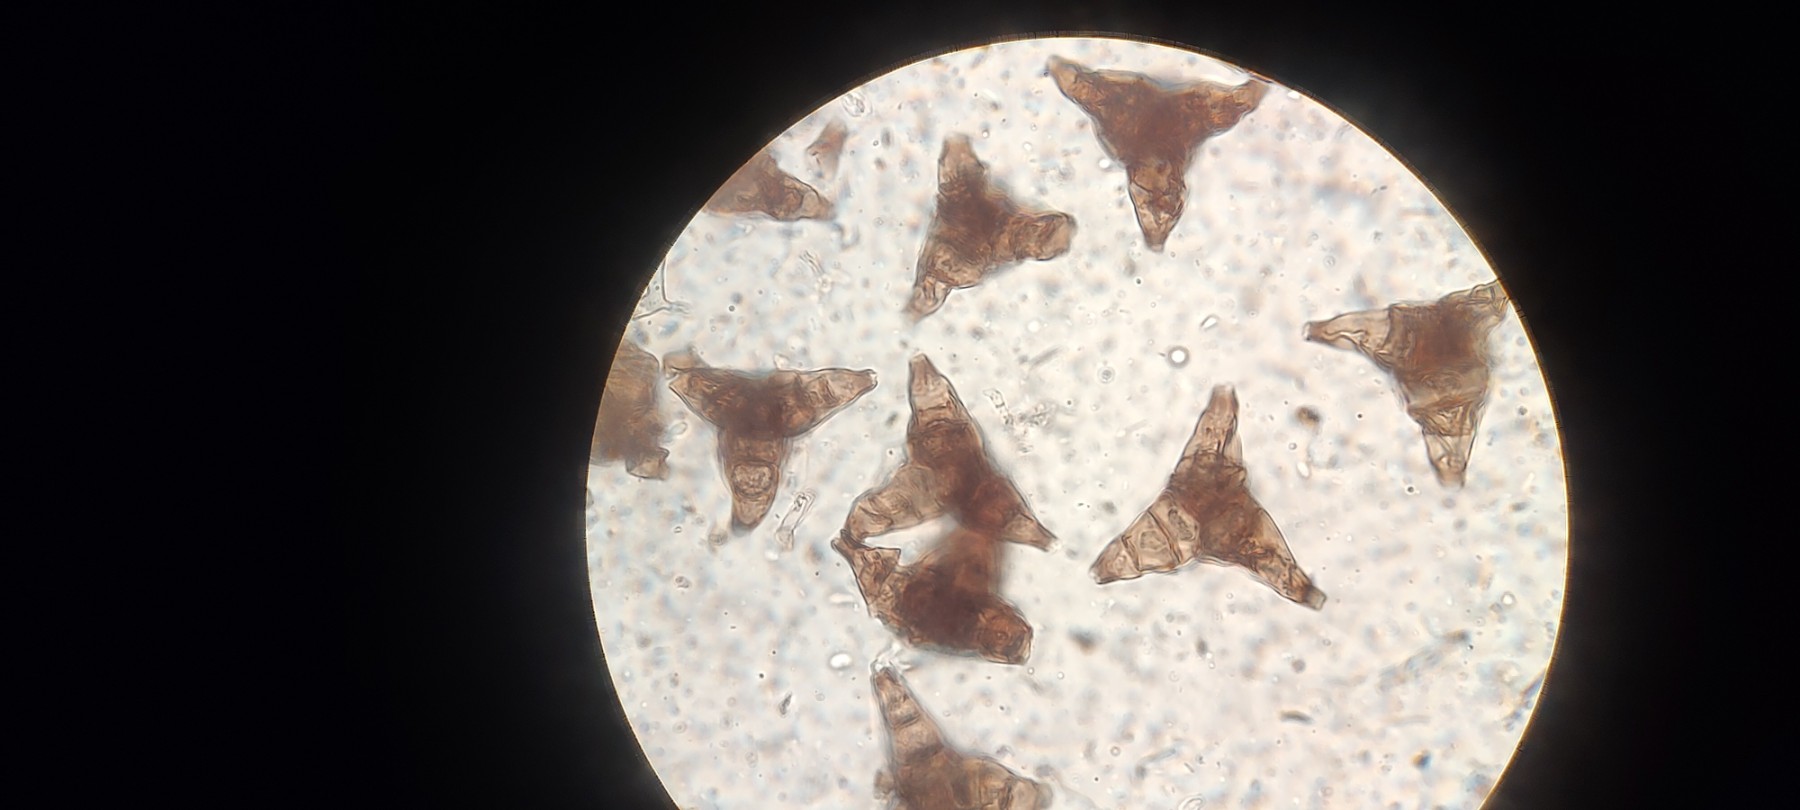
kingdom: Fungi
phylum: Ascomycota
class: Sordariomycetes
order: Diaporthales
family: Asterosporiaceae
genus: Asterosporium
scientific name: Asterosporium asterospermum
